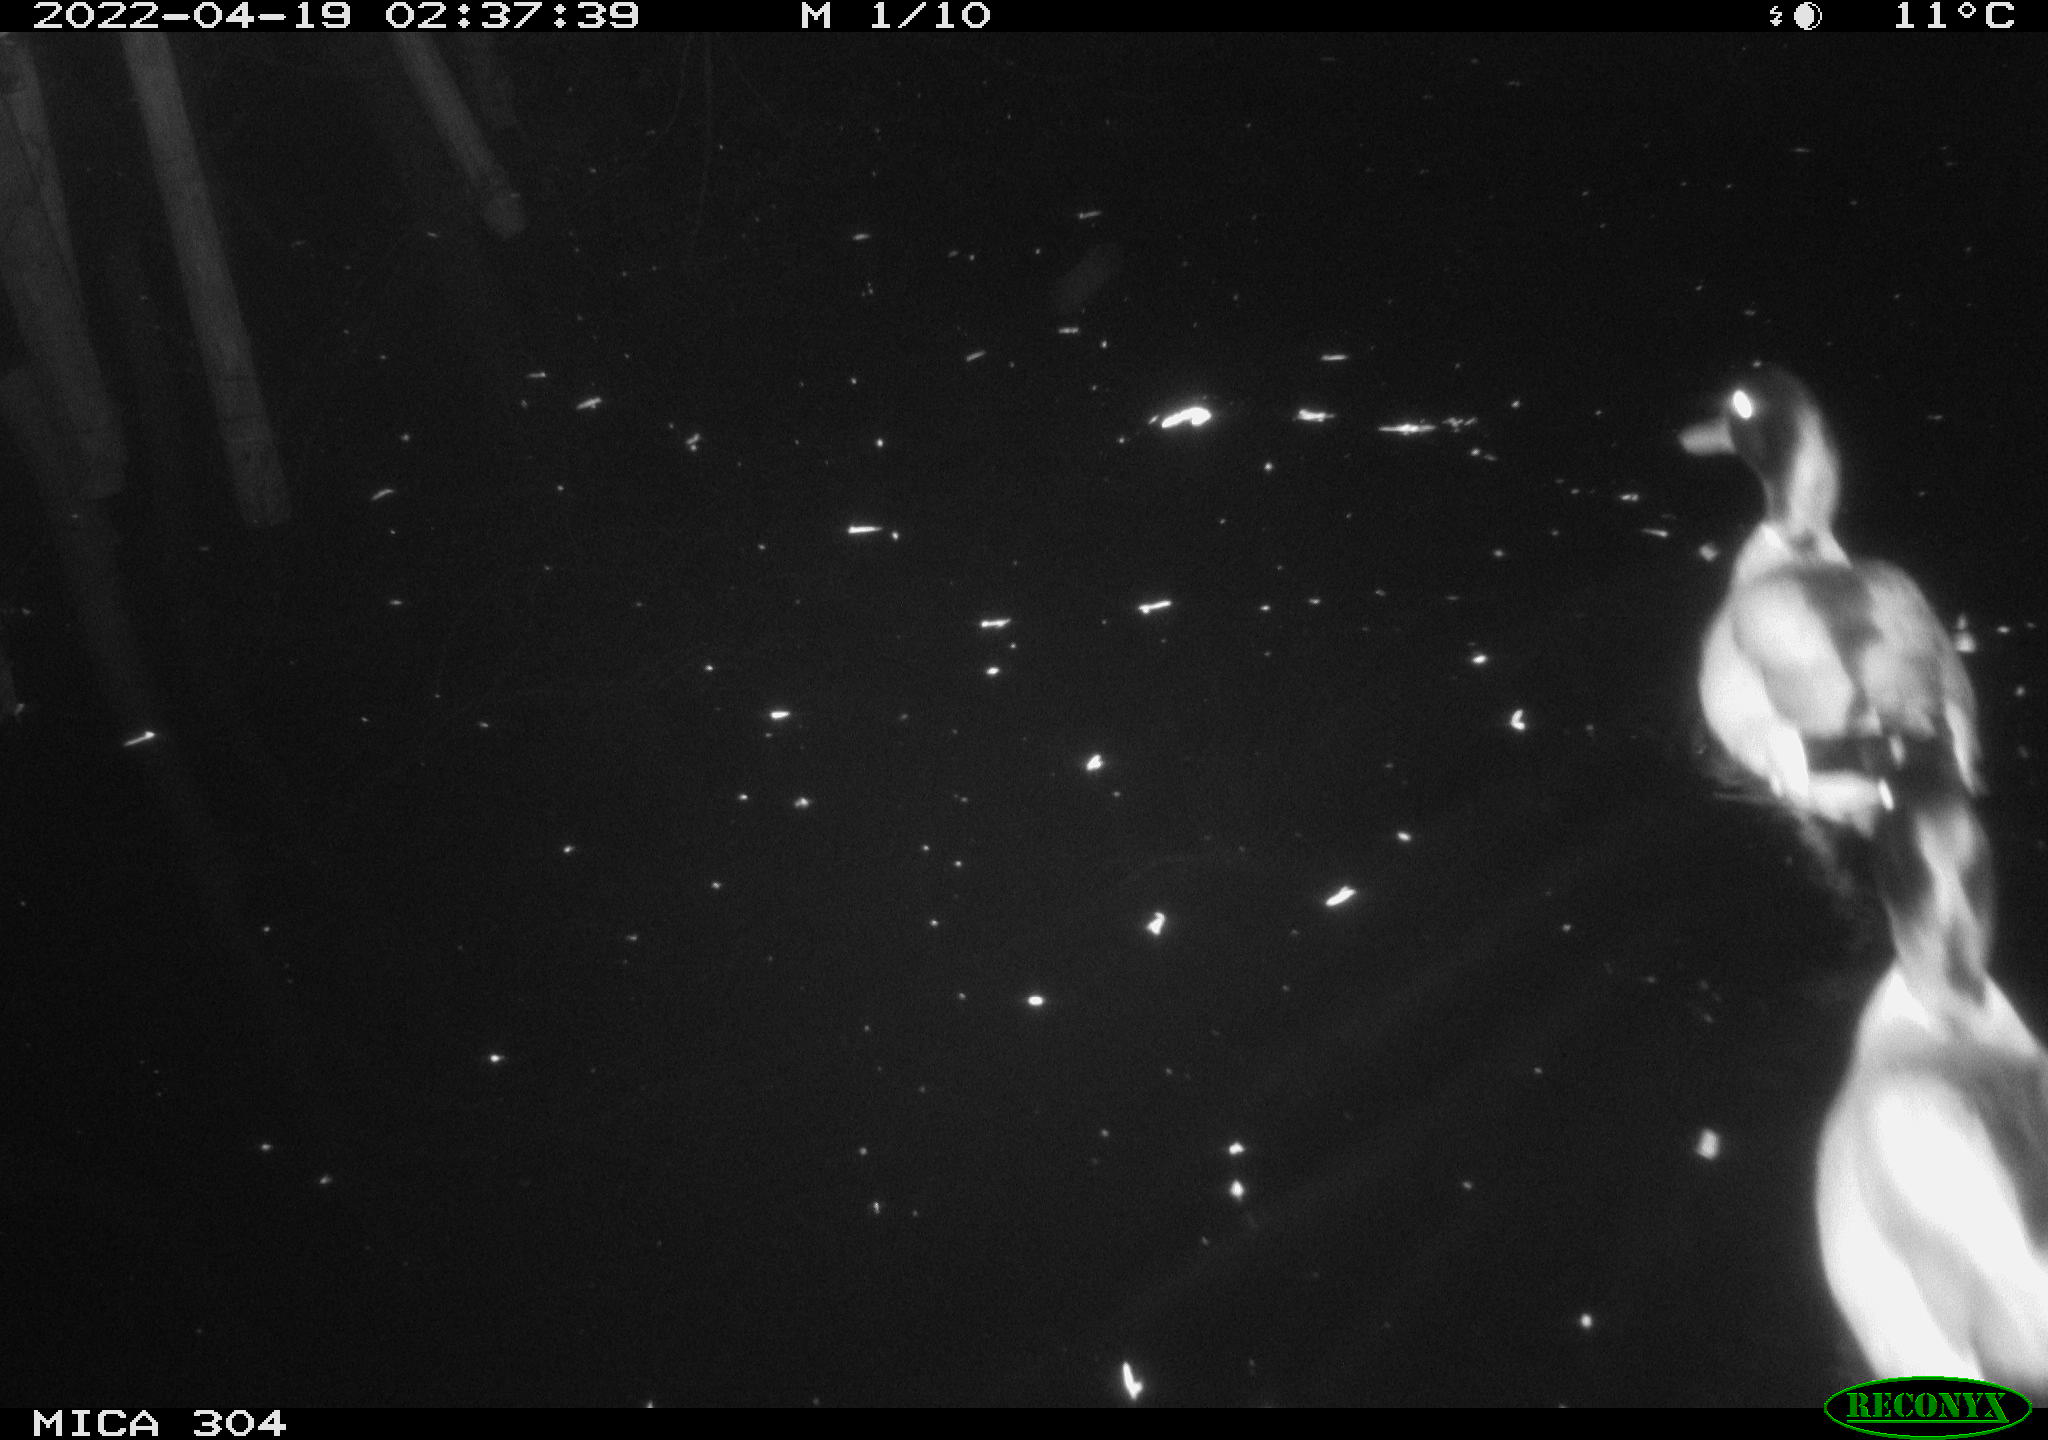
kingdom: Animalia
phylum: Chordata
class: Aves
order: Anseriformes
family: Anatidae
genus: Anas
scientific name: Anas platyrhynchos
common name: Mallard
